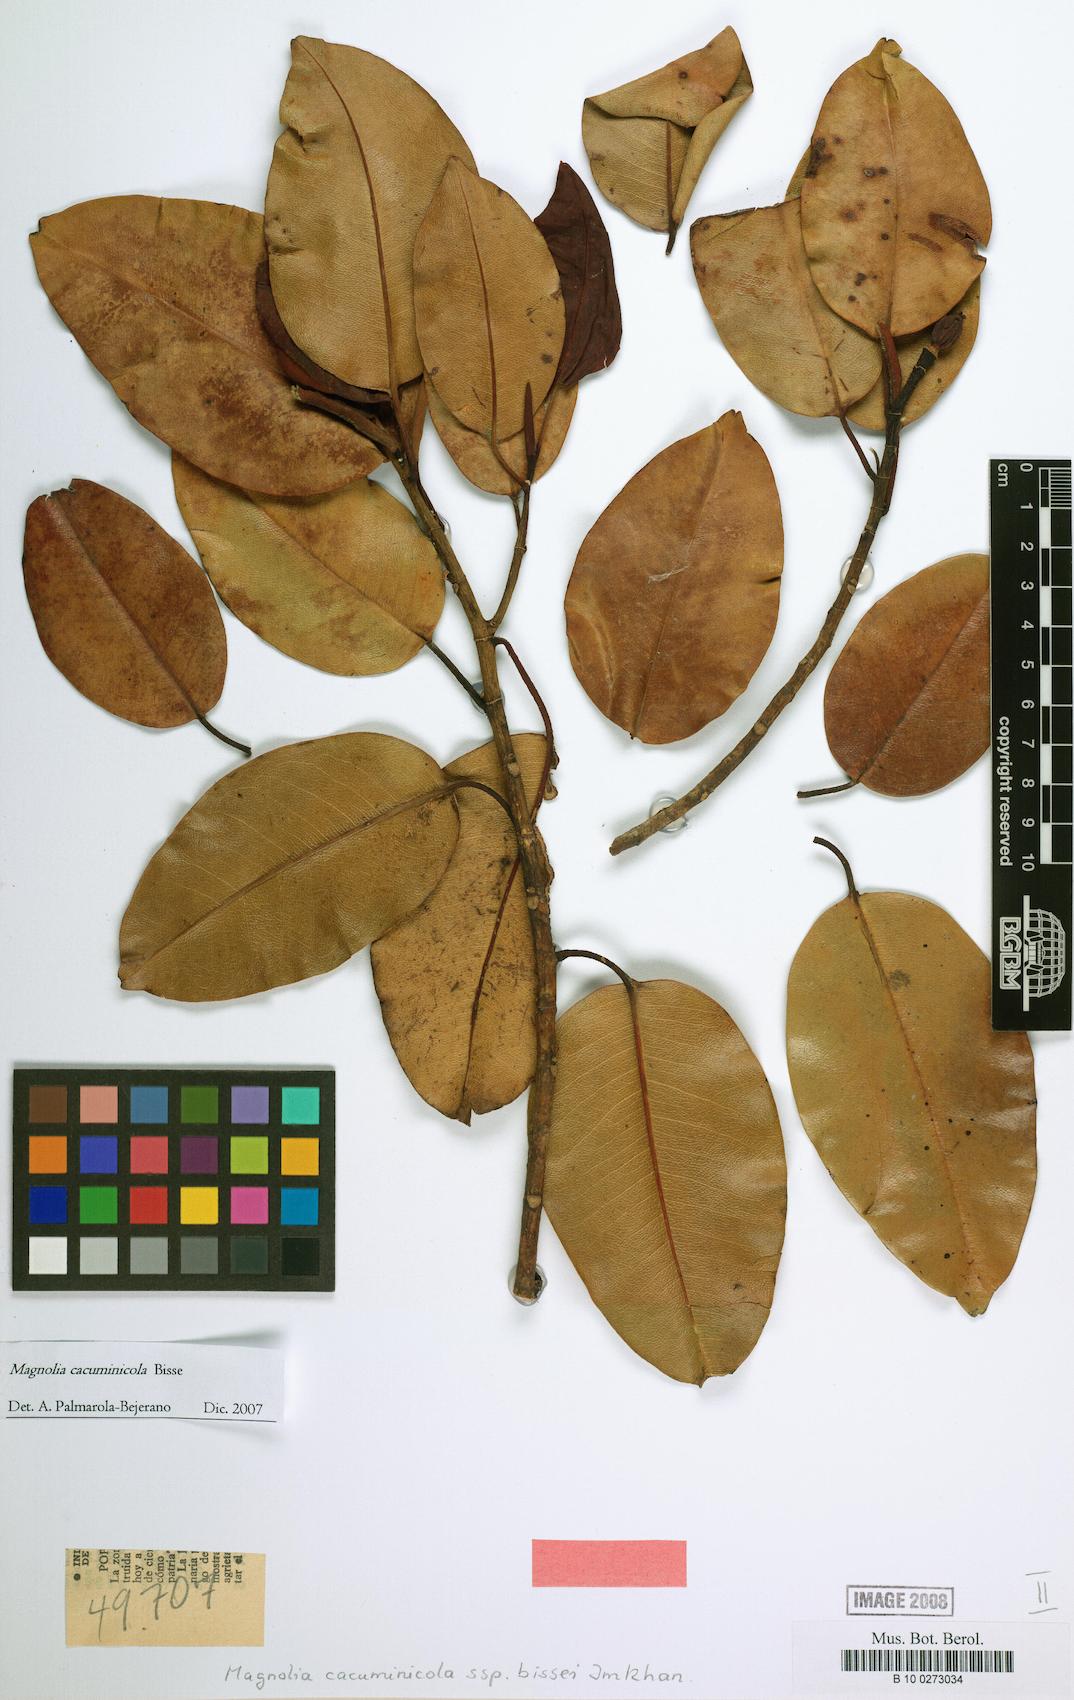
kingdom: Plantae
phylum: Tracheophyta
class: Magnoliopsida
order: Magnoliales
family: Magnoliaceae
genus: Magnolia
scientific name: Magnolia cubensis
